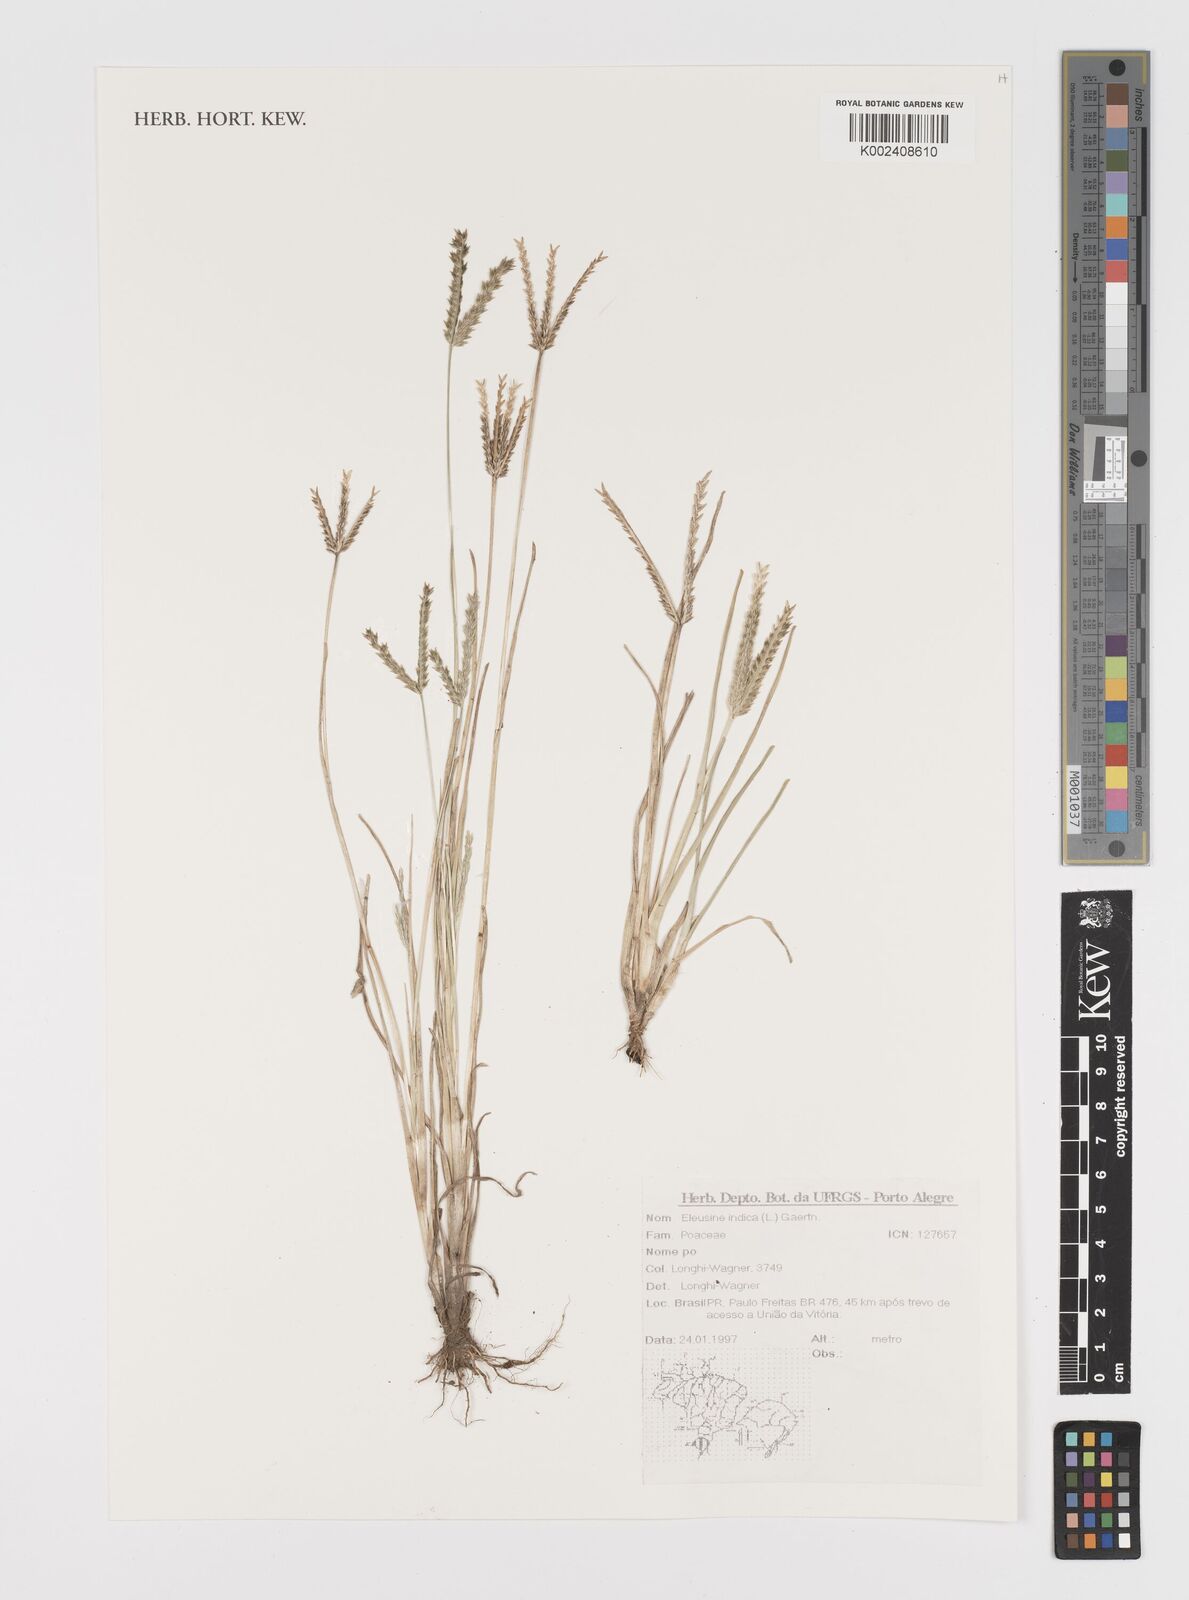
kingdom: Plantae
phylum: Tracheophyta
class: Liliopsida
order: Poales
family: Poaceae
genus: Eleusine
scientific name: Eleusine indica
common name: Yard-grass
